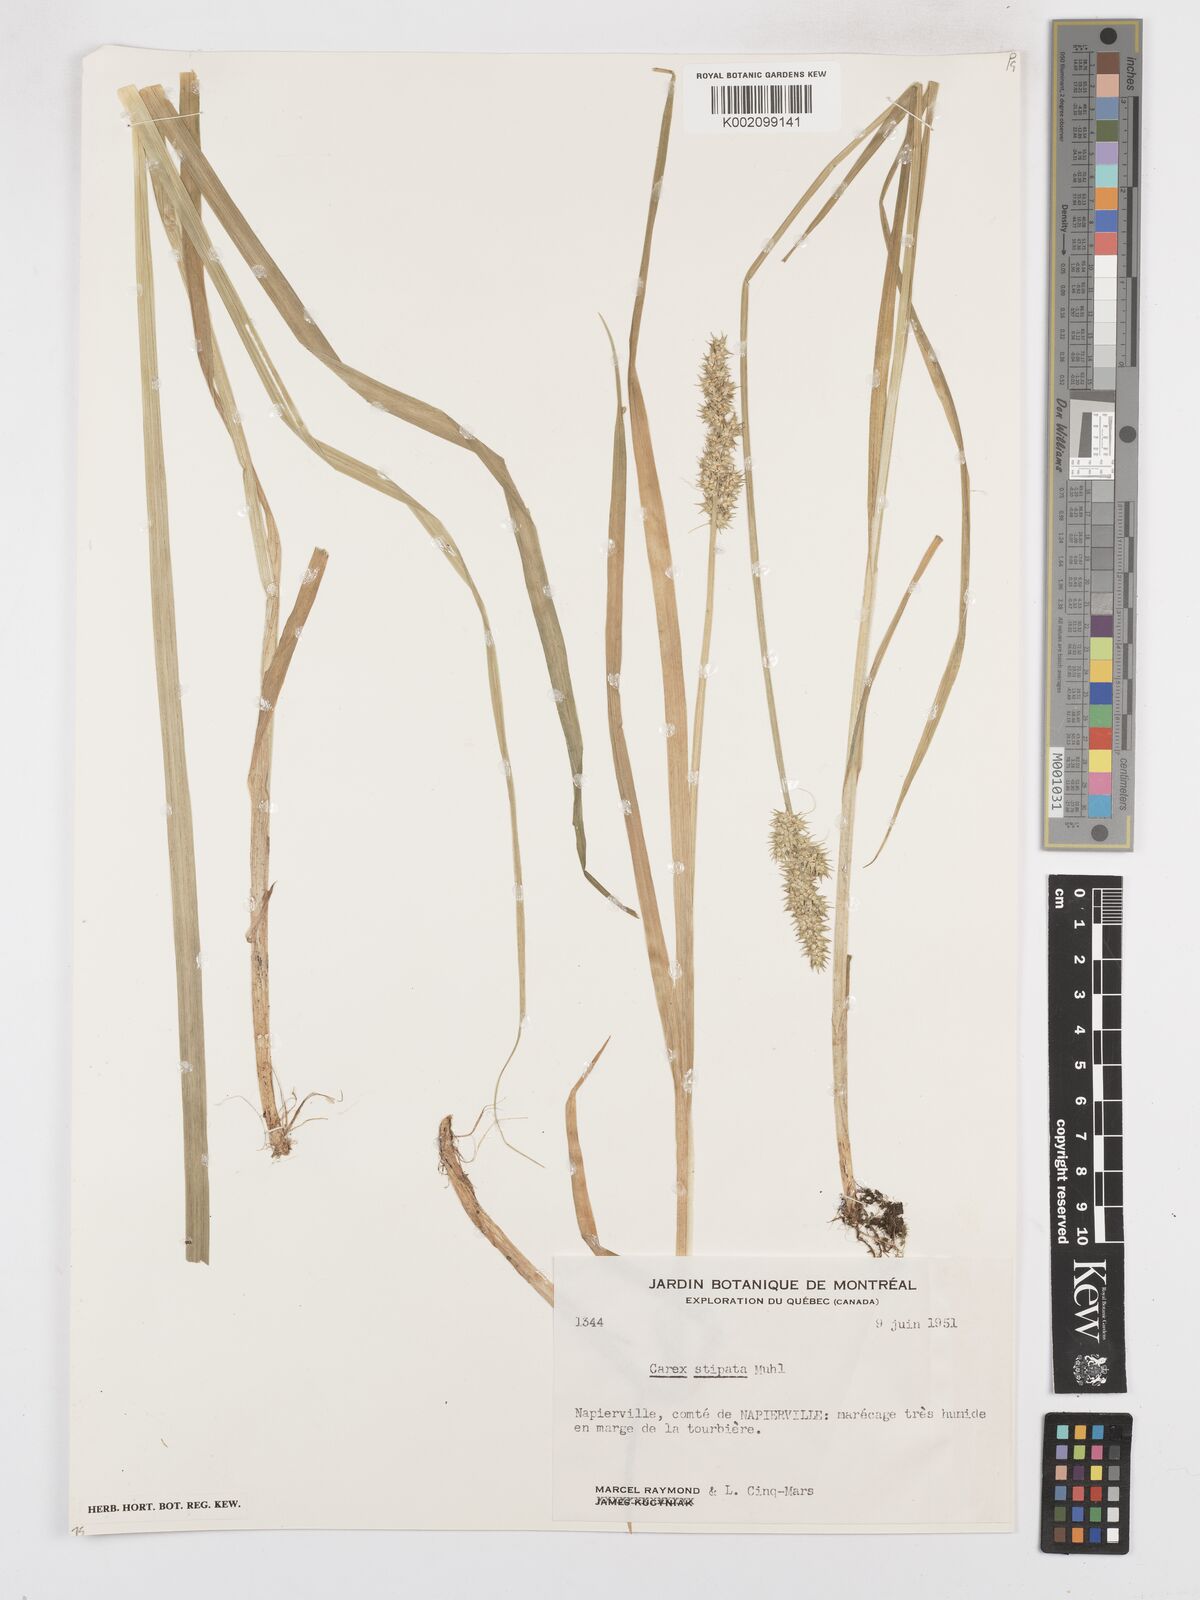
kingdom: Plantae
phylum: Tracheophyta
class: Liliopsida
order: Poales
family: Cyperaceae
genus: Carex
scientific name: Carex stipata
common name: Awl-fruited sedge
